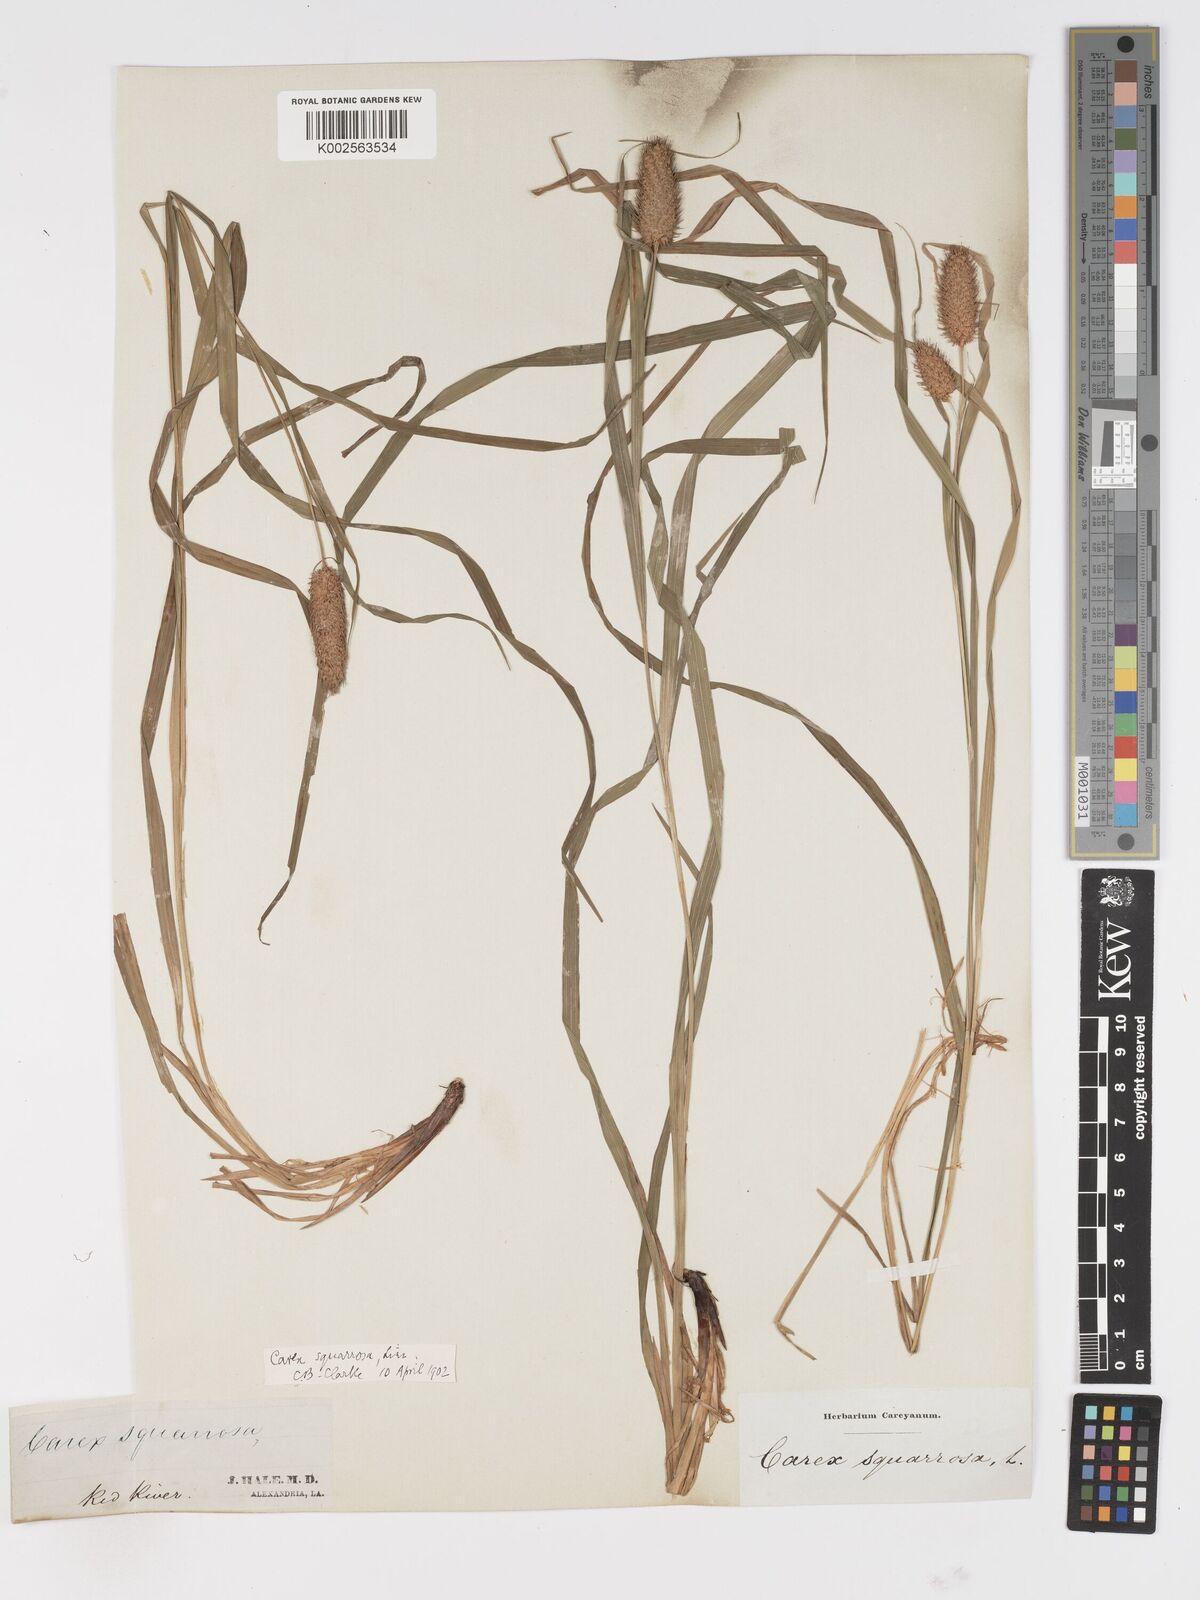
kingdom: Plantae
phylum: Tracheophyta
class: Liliopsida
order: Poales
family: Cyperaceae
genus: Carex
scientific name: Carex squarrosa
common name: Narrow-leaved cattail sedge
